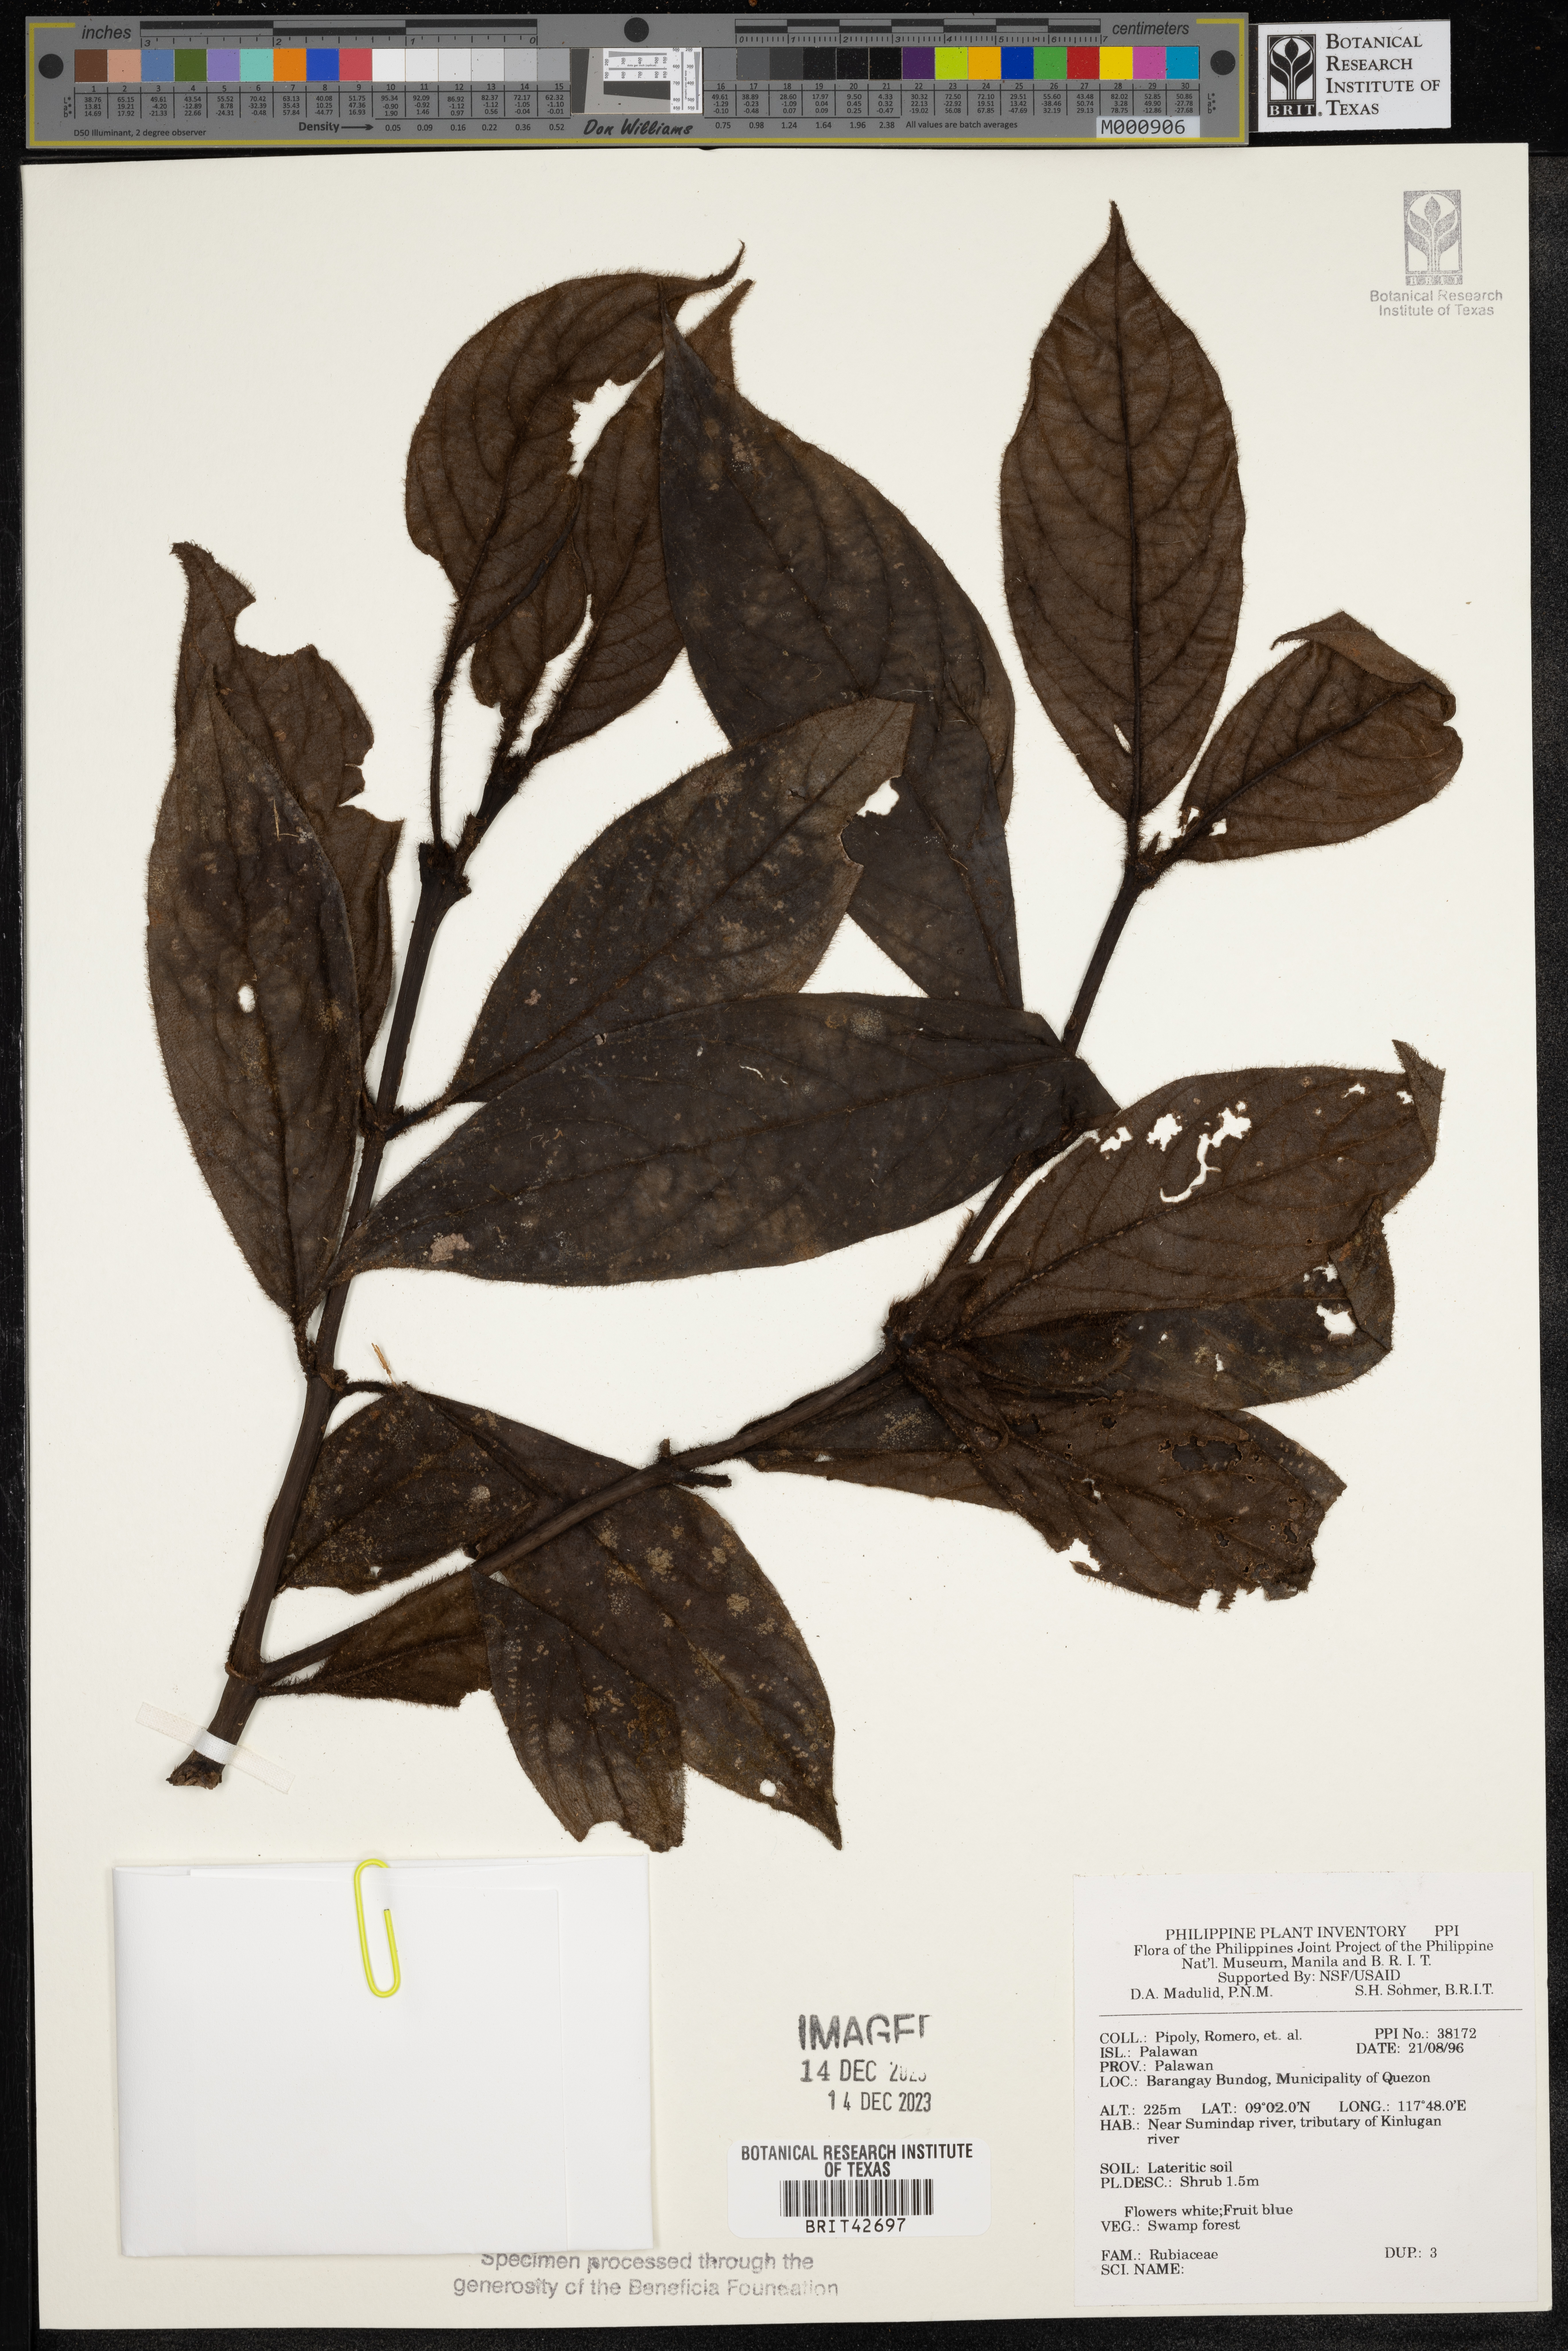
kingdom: Plantae
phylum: Tracheophyta
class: Magnoliopsida
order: Gentianales
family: Rubiaceae
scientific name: Rubiaceae
